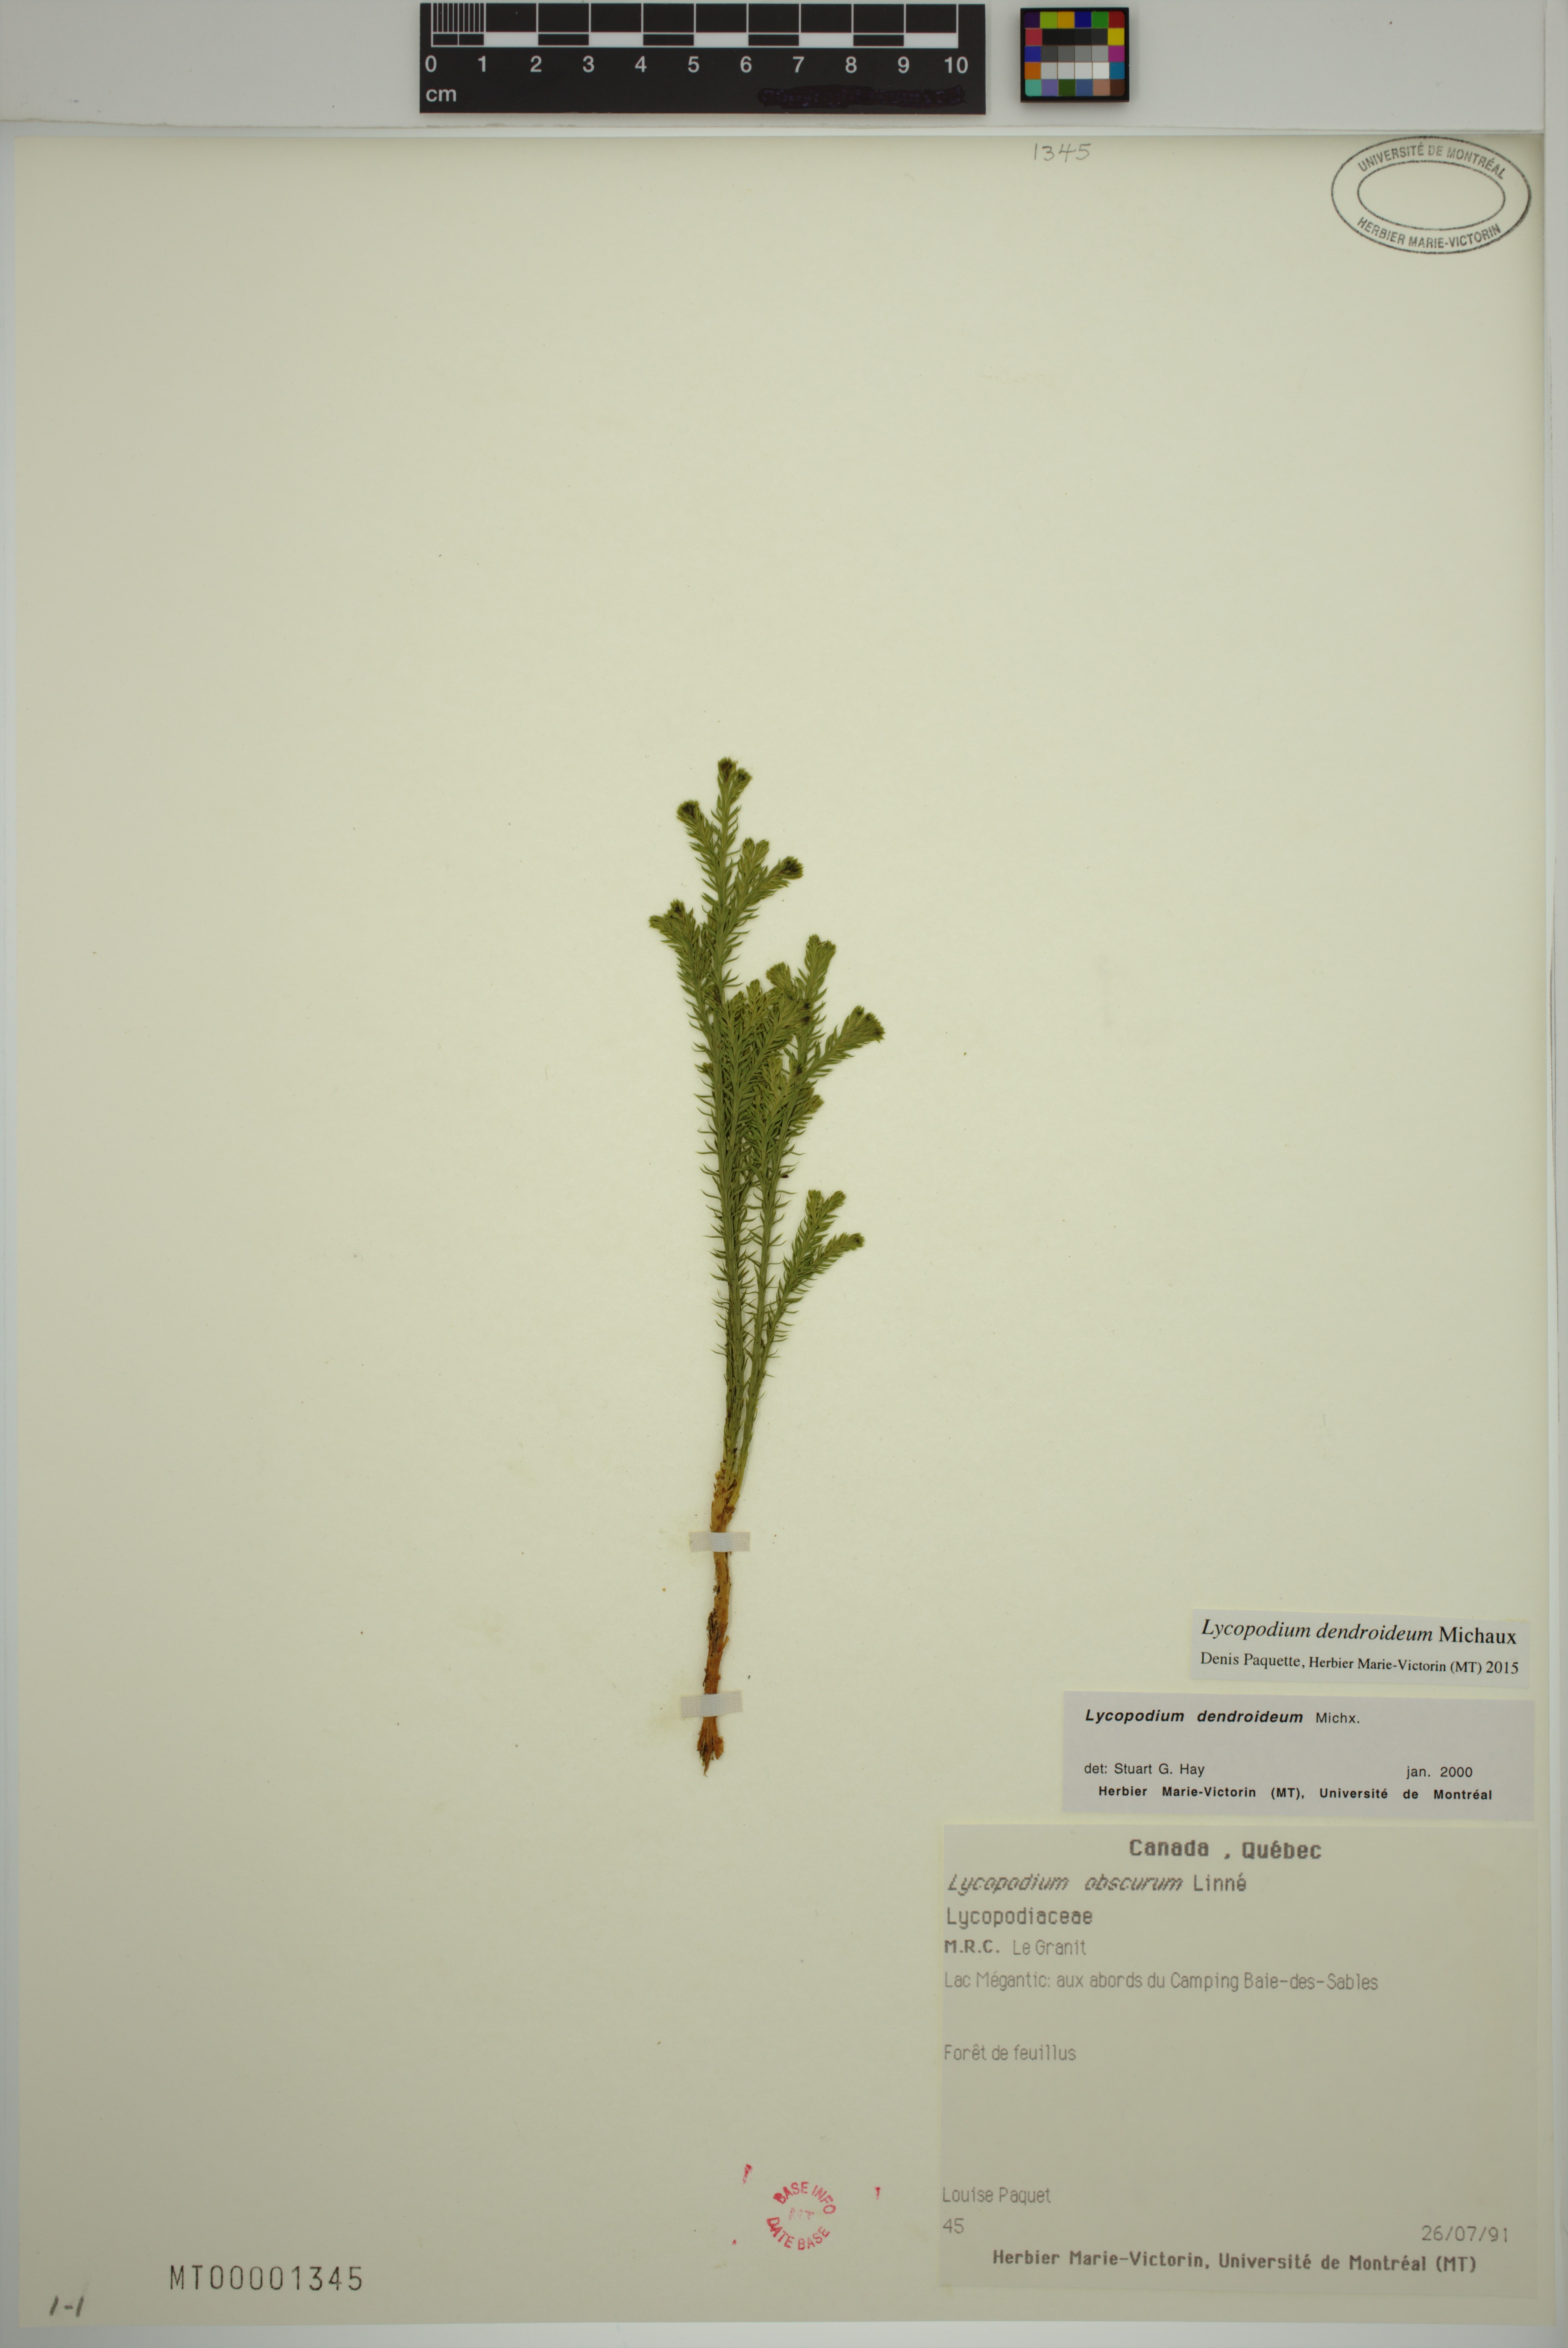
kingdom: Plantae
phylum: Tracheophyta
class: Lycopodiopsida
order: Lycopodiales
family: Lycopodiaceae
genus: Dendrolycopodium
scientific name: Dendrolycopodium dendroideum
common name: Northern tree-clubmoss
